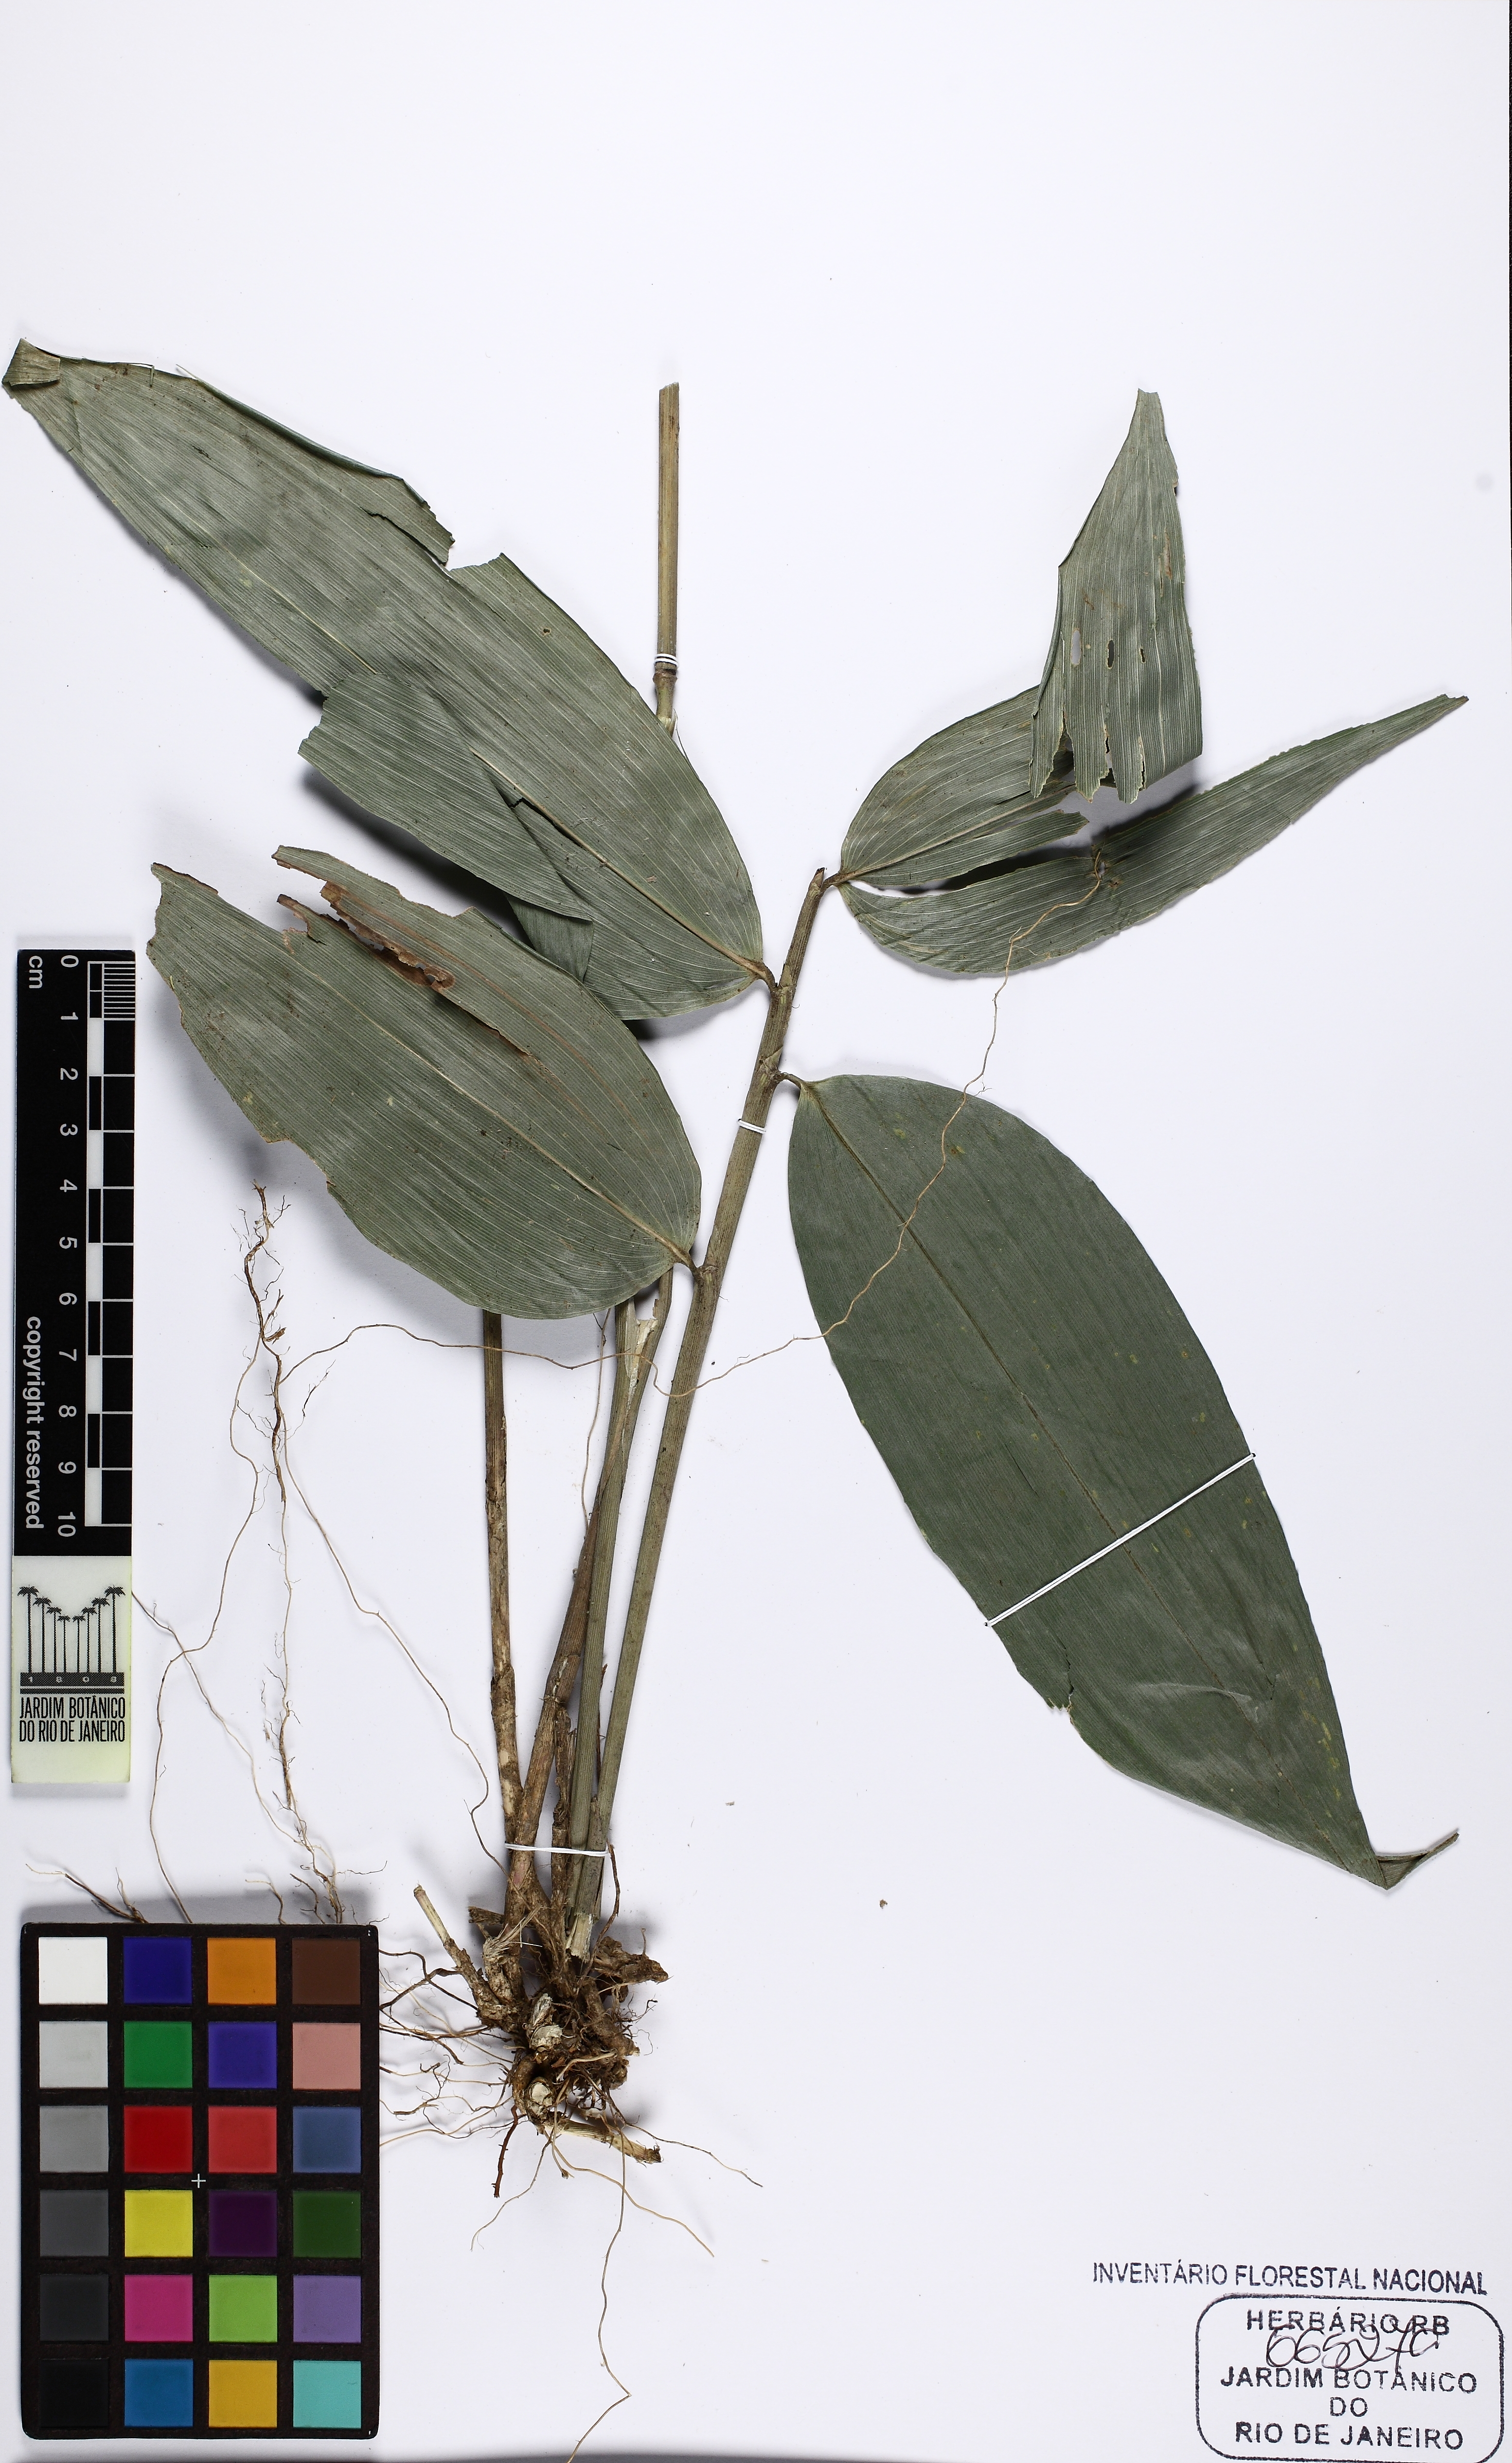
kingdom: Plantae
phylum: Tracheophyta
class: Liliopsida
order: Poales
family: Poaceae
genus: Pariana
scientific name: Pariana radiciflora
